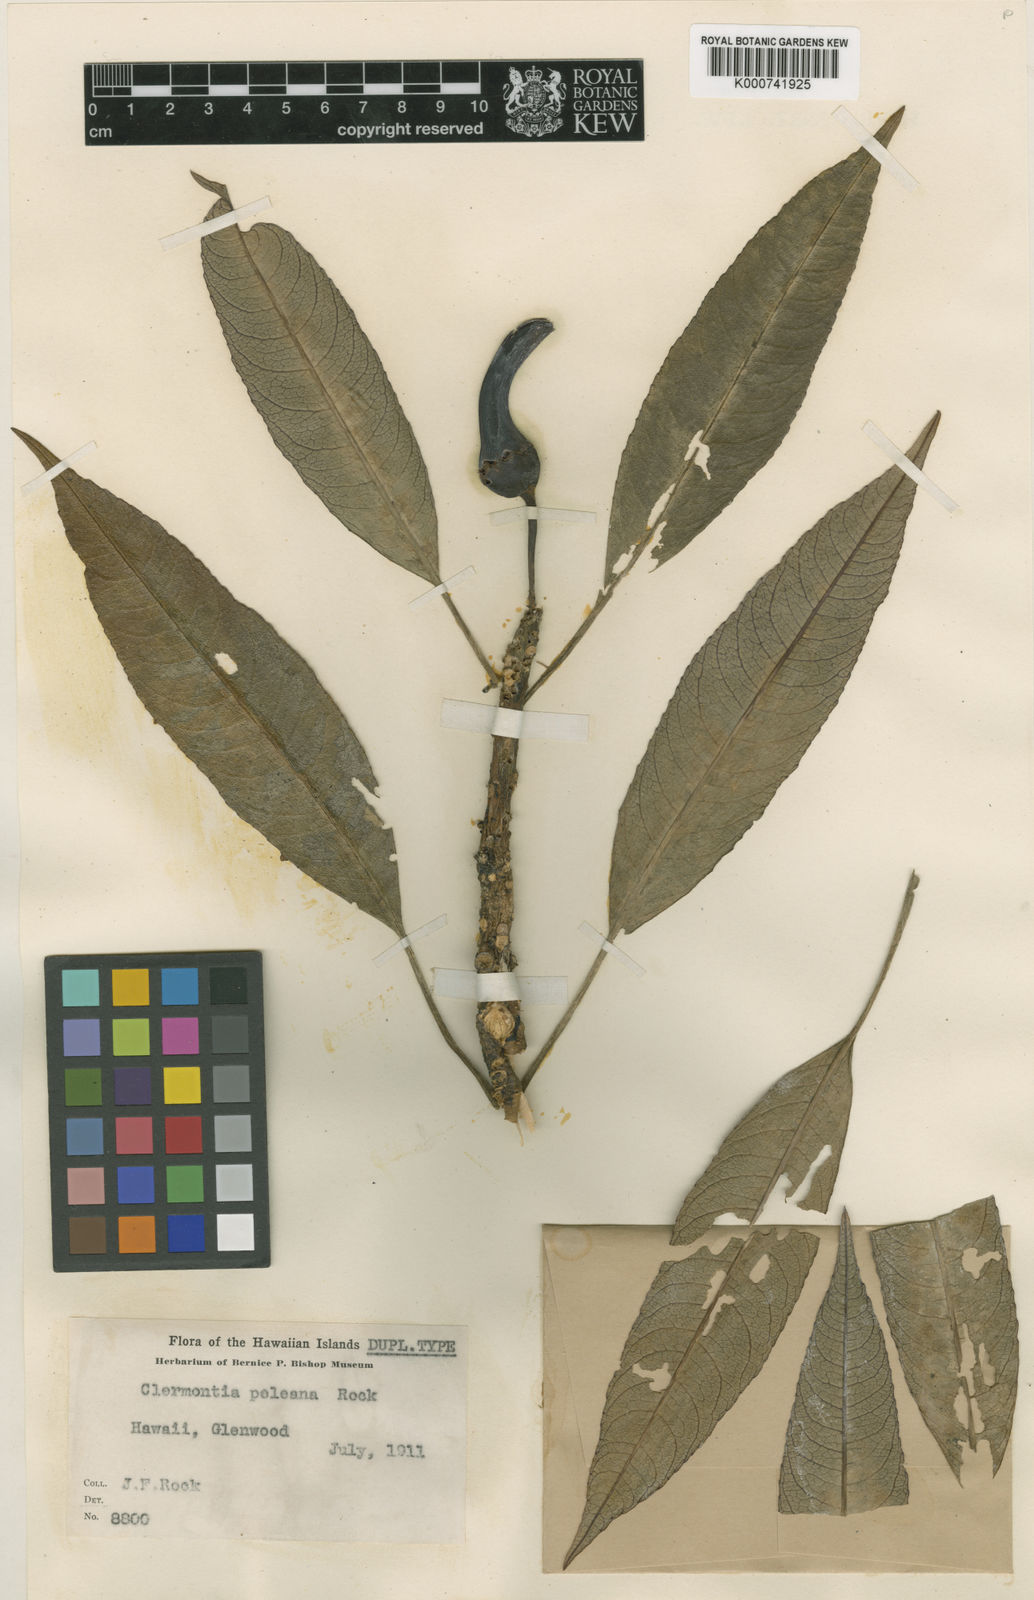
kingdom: Plantae
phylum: Tracheophyta
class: Magnoliopsida
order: Asterales
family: Campanulaceae
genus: Clermontia
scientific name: Clermontia peleana
